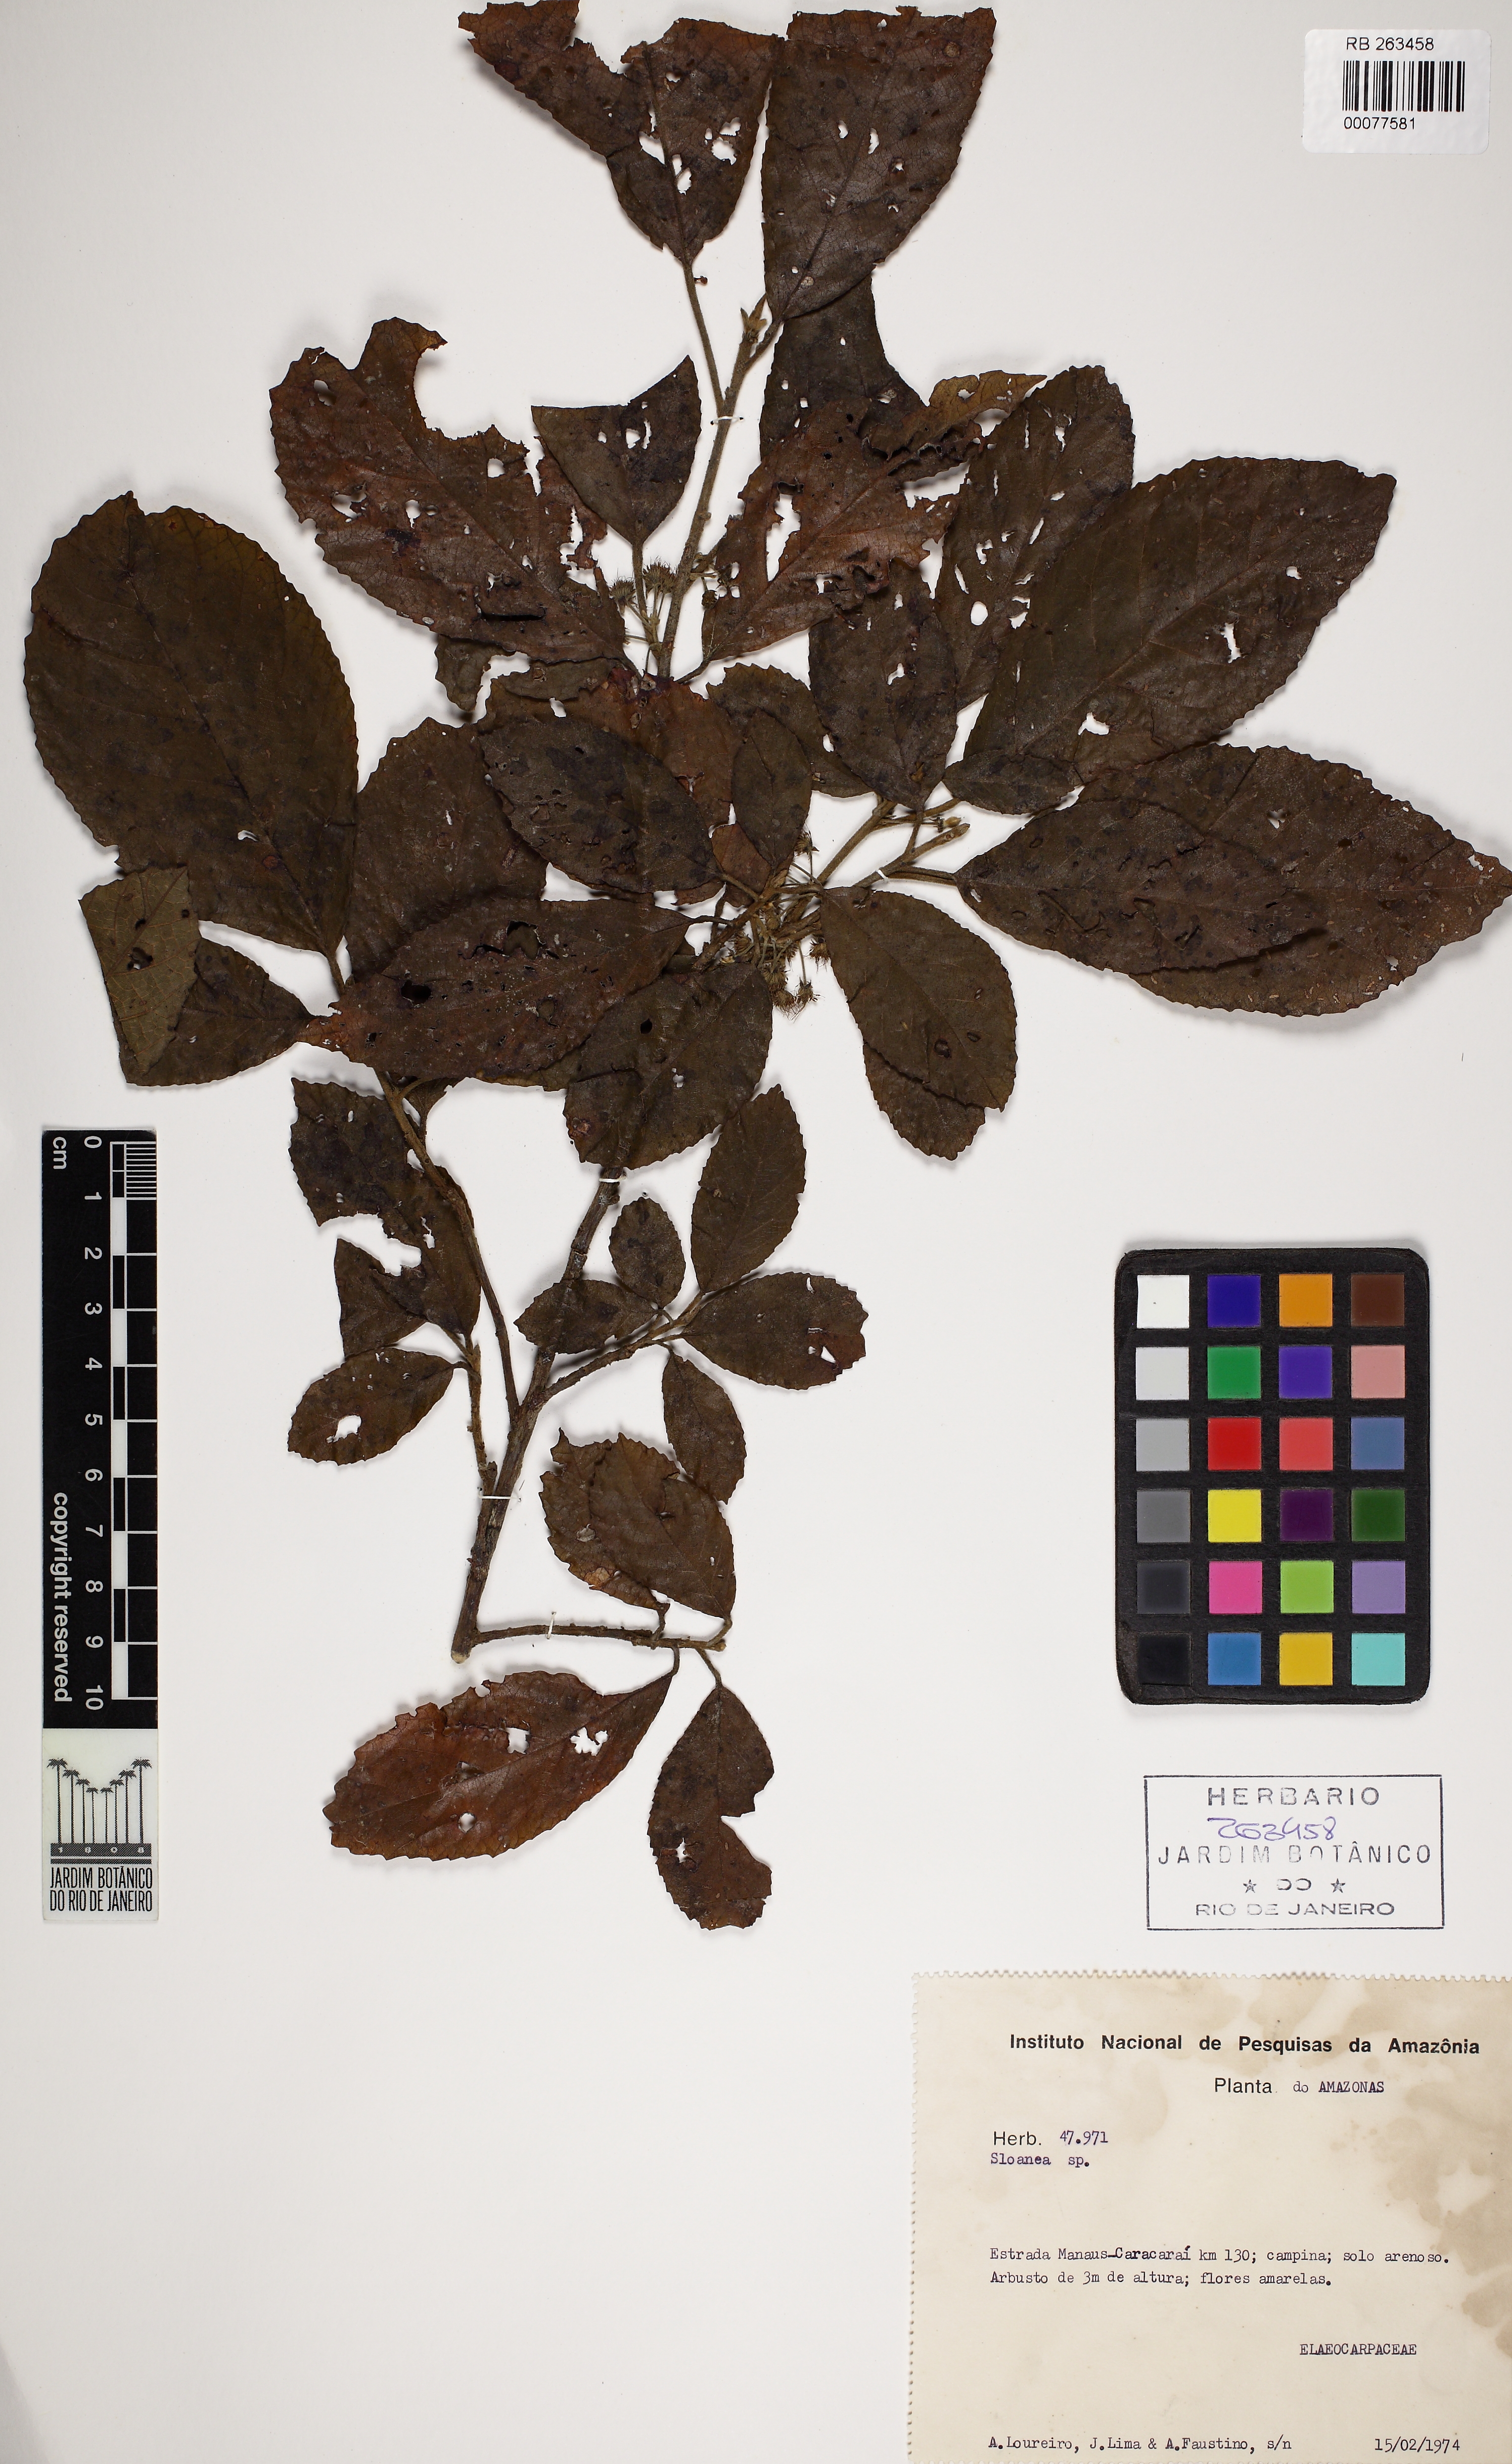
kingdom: Plantae
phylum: Tracheophyta
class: Magnoliopsida
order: Oxalidales
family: Elaeocarpaceae
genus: Sloanea
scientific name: Sloanea
